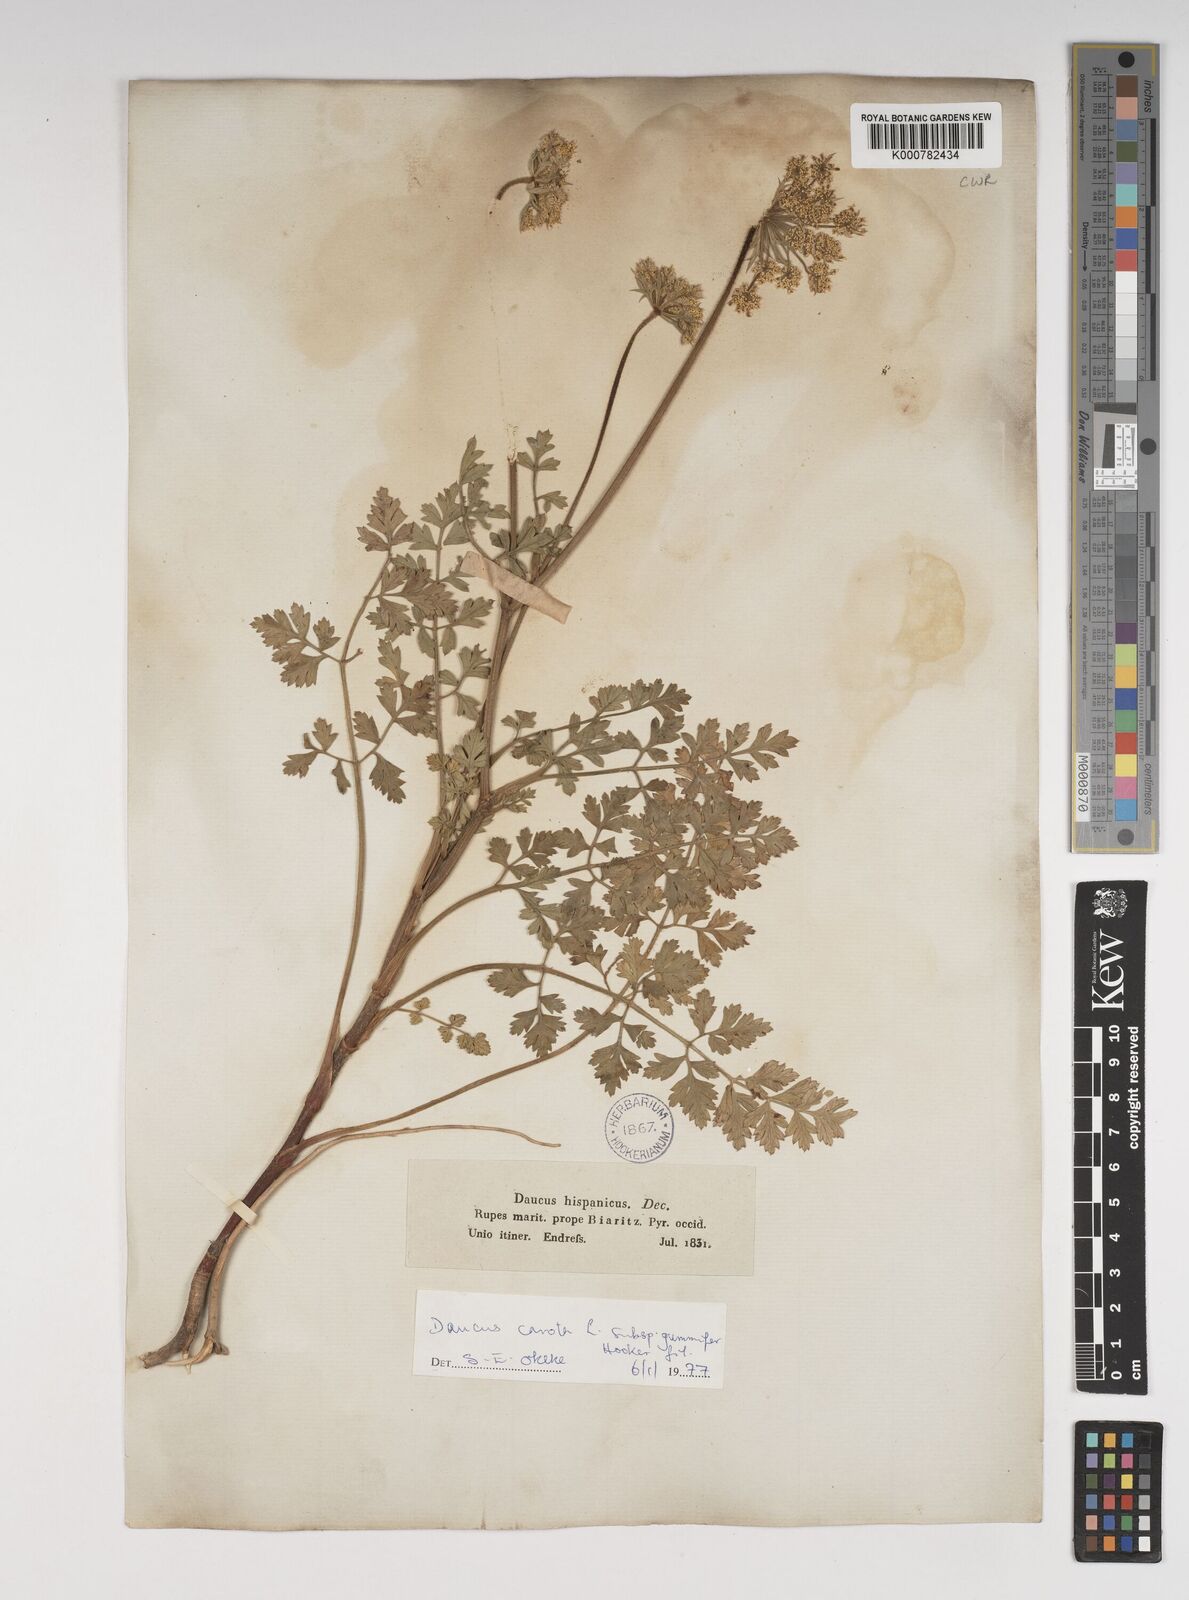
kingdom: Plantae
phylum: Tracheophyta
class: Magnoliopsida
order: Apiales
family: Apiaceae
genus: Daucus
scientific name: Daucus carota
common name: Wild carrot
